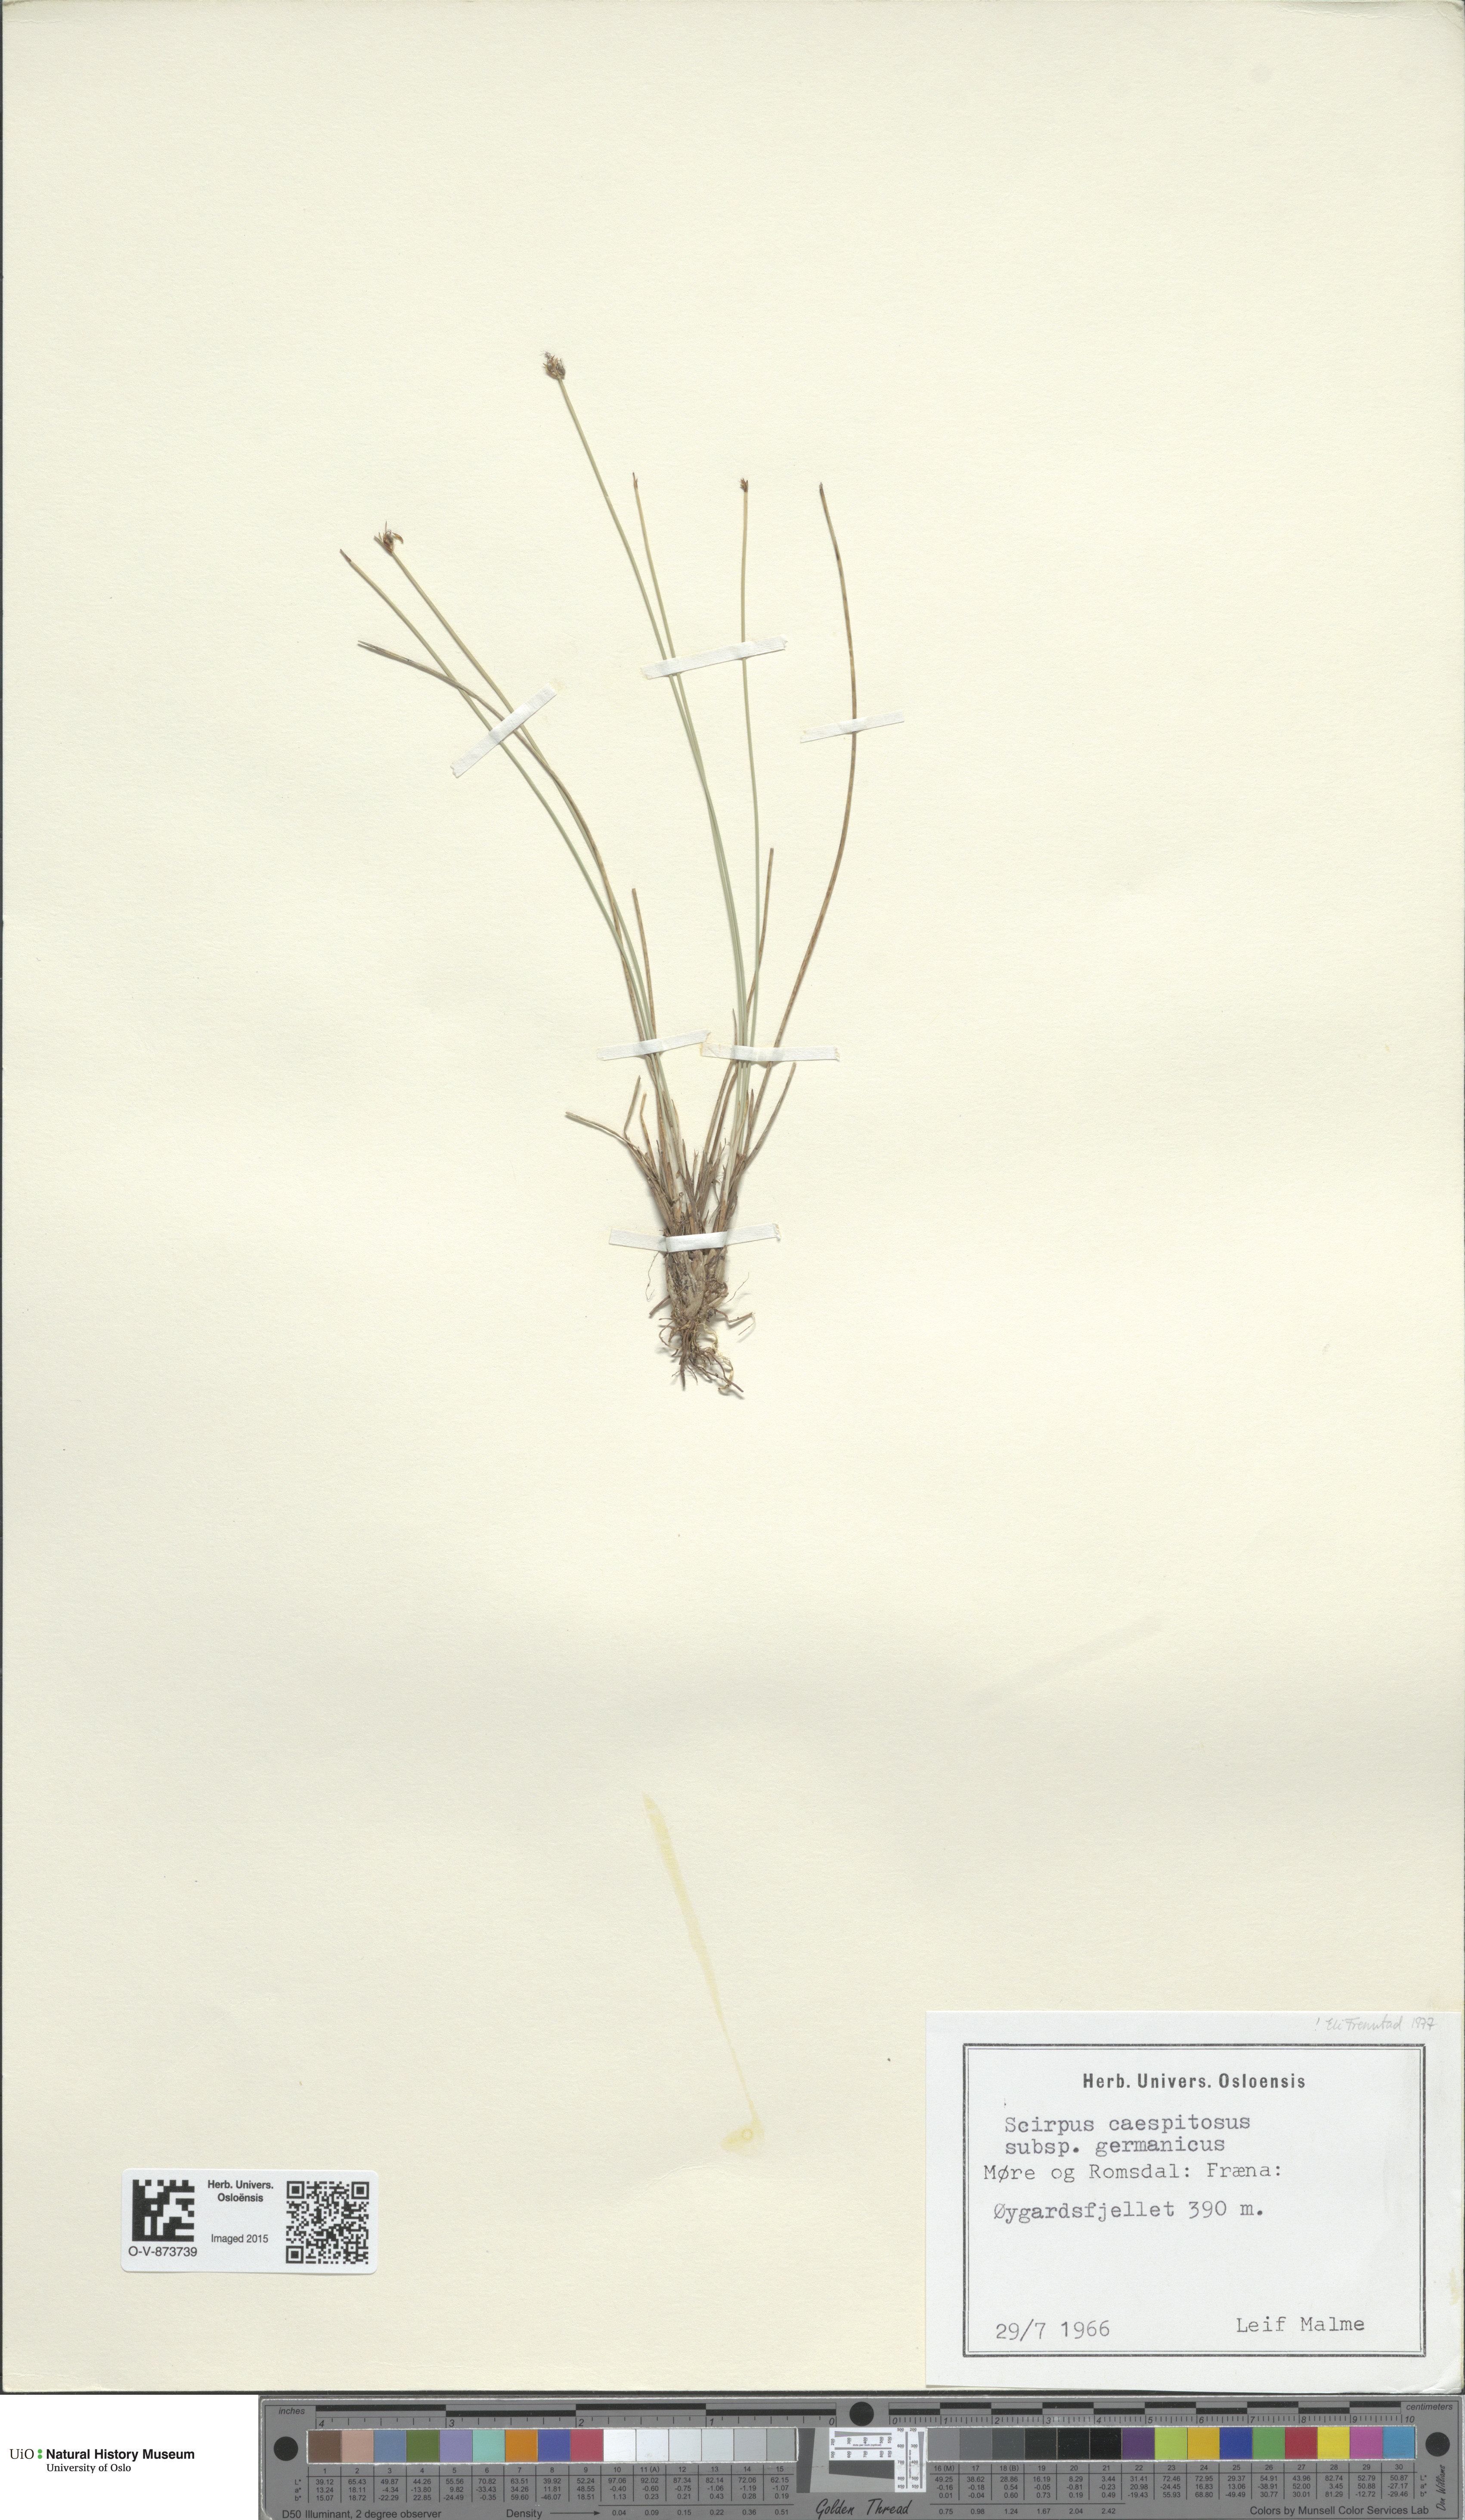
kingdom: Plantae
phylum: Tracheophyta
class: Liliopsida
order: Poales
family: Cyperaceae
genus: Trichophorum
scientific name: Trichophorum cespitosum
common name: Cespitose bulrush
